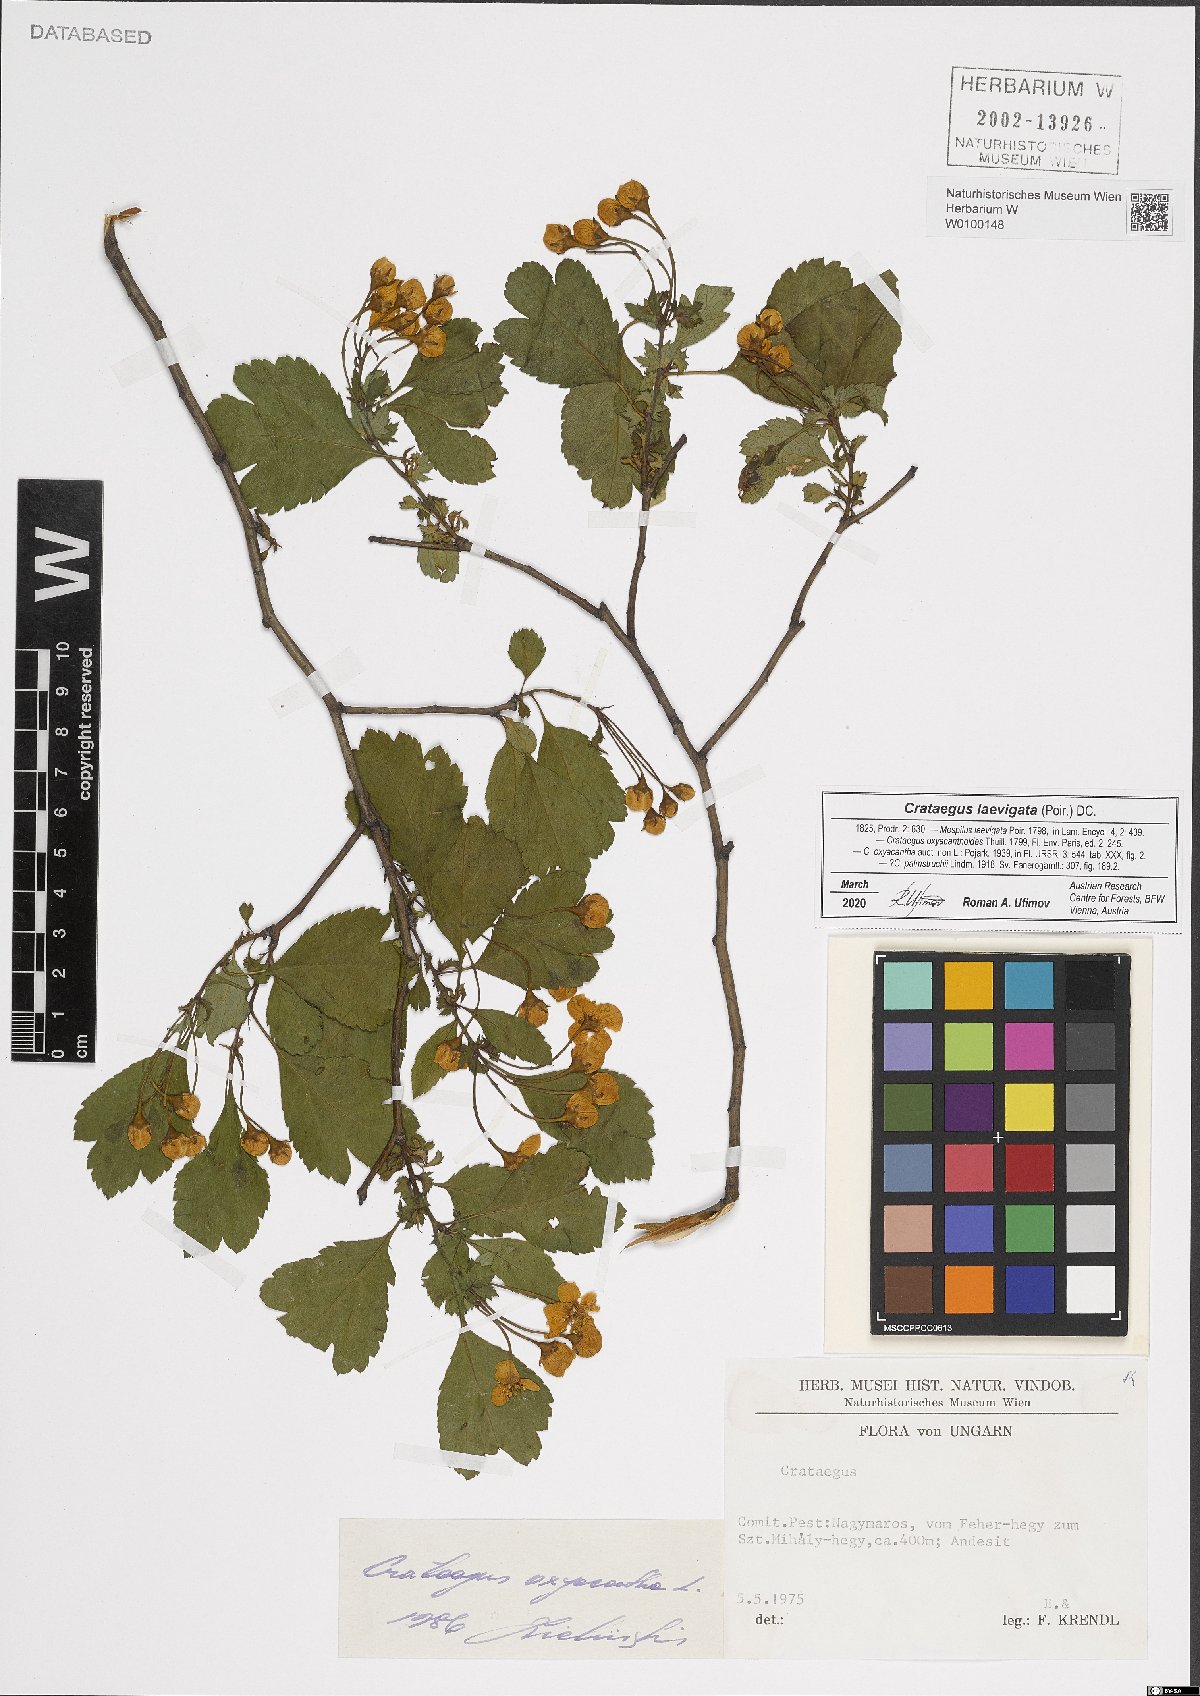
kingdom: Plantae
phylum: Tracheophyta
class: Magnoliopsida
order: Rosales
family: Rosaceae
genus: Crataegus
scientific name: Crataegus laevigata
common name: Midland hawthorn
